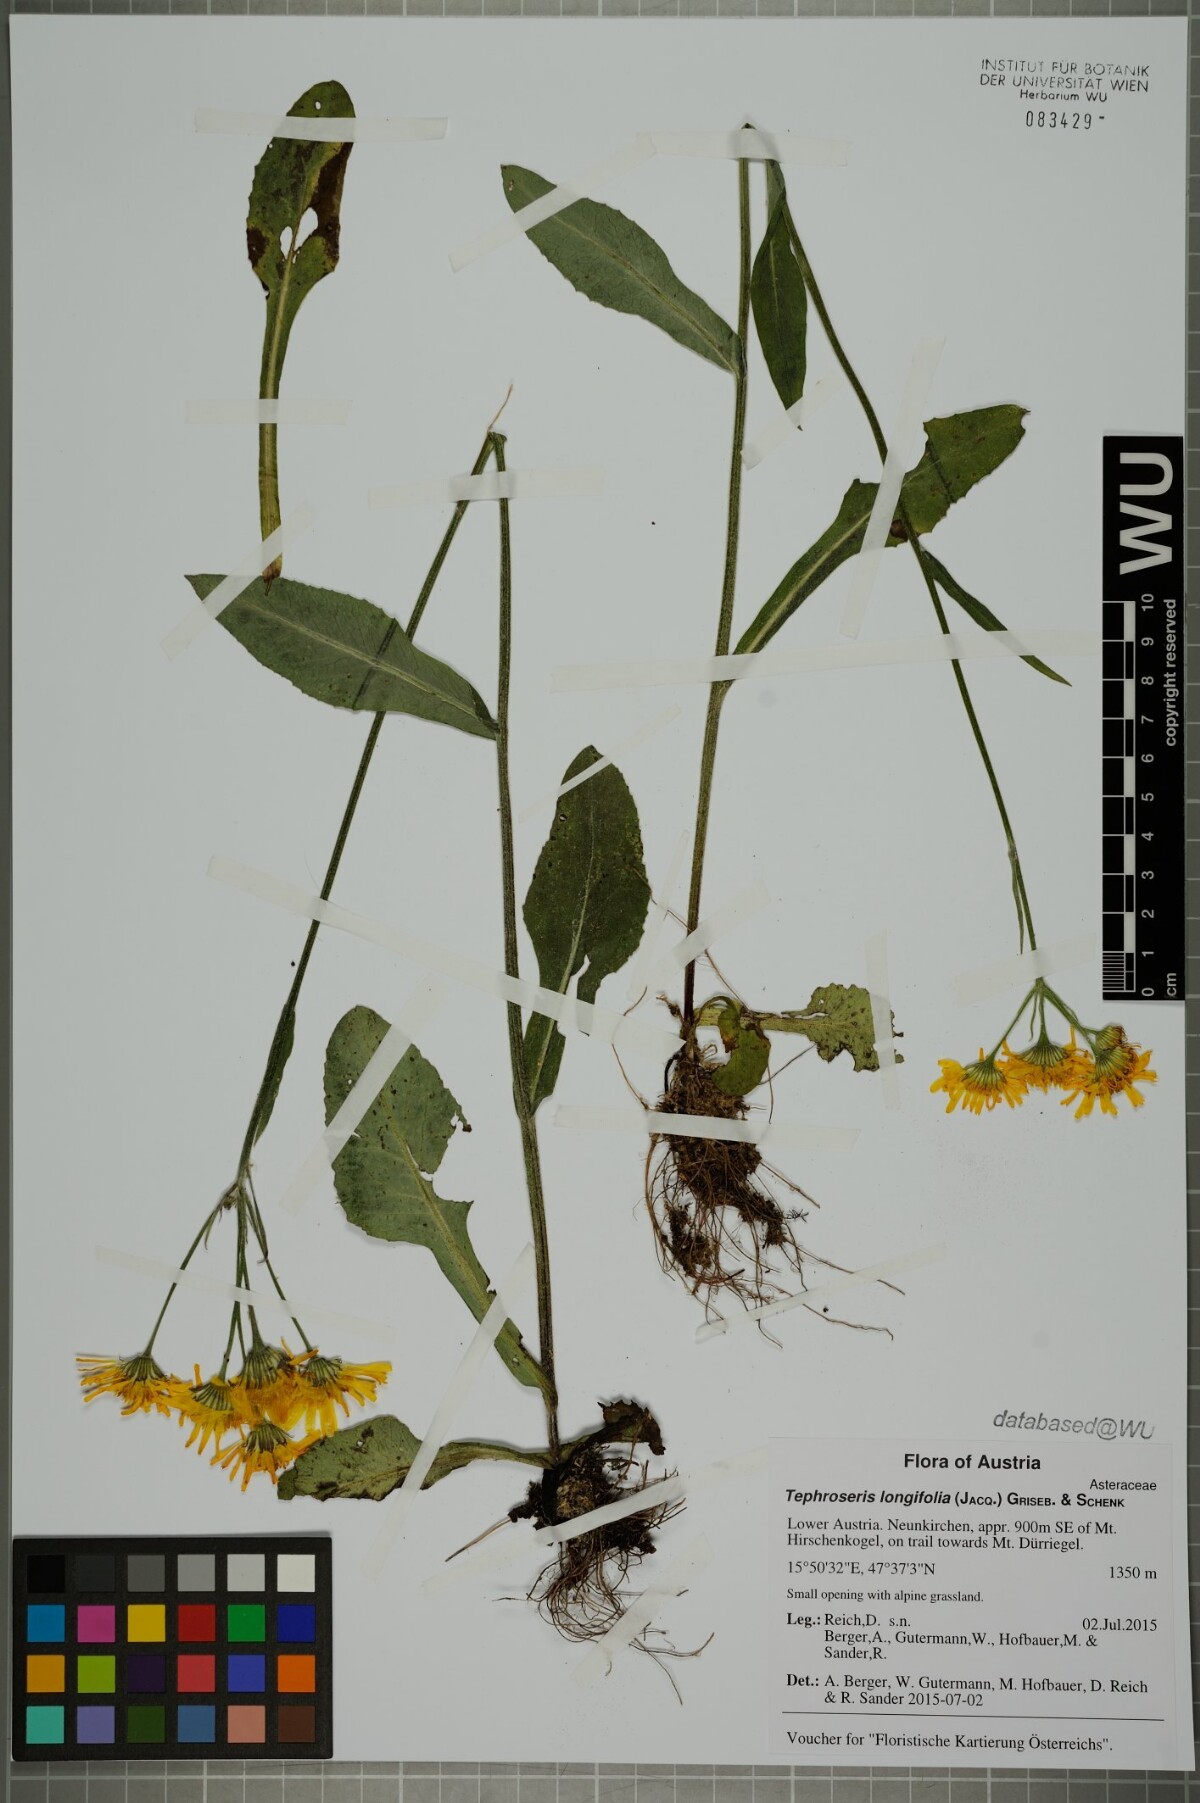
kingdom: Plantae
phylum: Tracheophyta
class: Magnoliopsida
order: Asterales
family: Asteraceae
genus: Tephroseris
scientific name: Tephroseris longifolia
